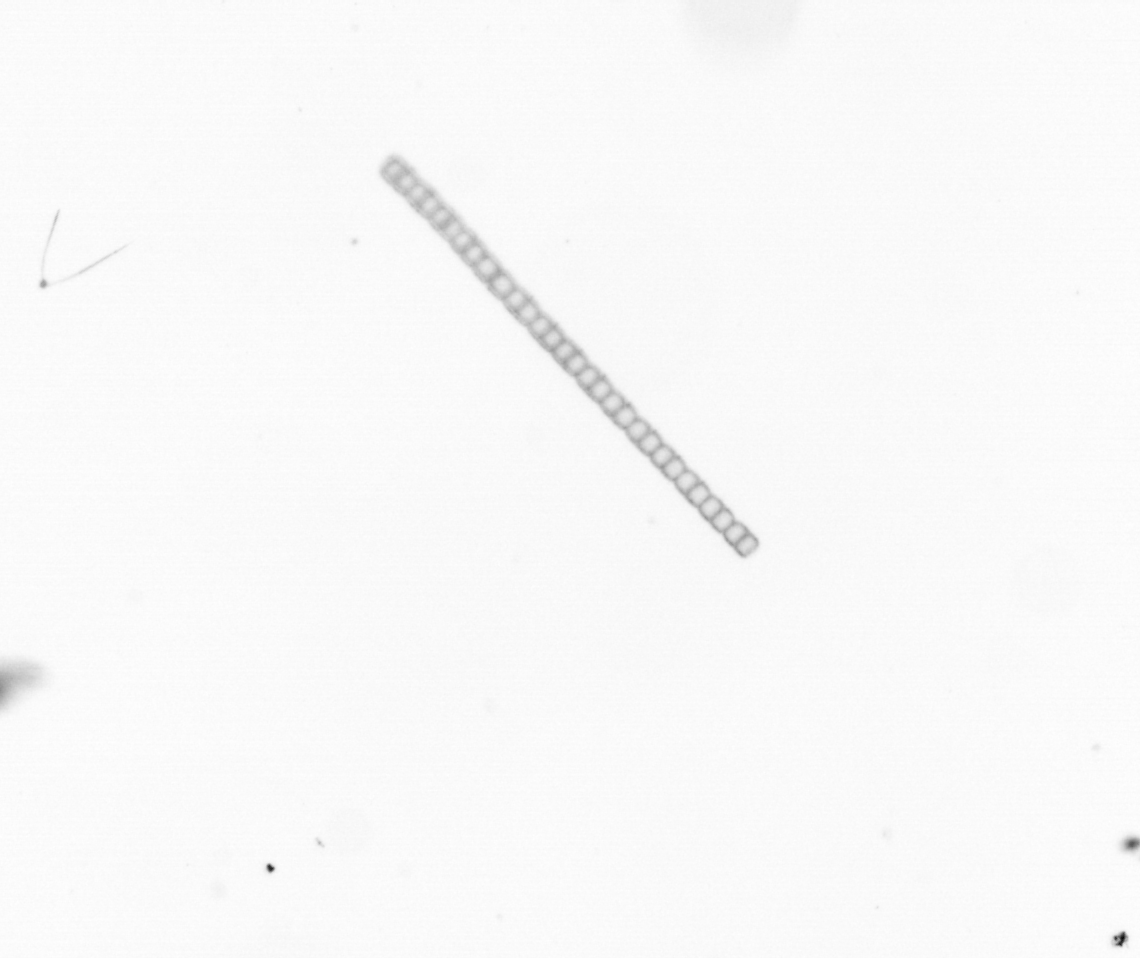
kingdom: Chromista
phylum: Ochrophyta
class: Bacillariophyceae
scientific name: Bacillariophyceae
